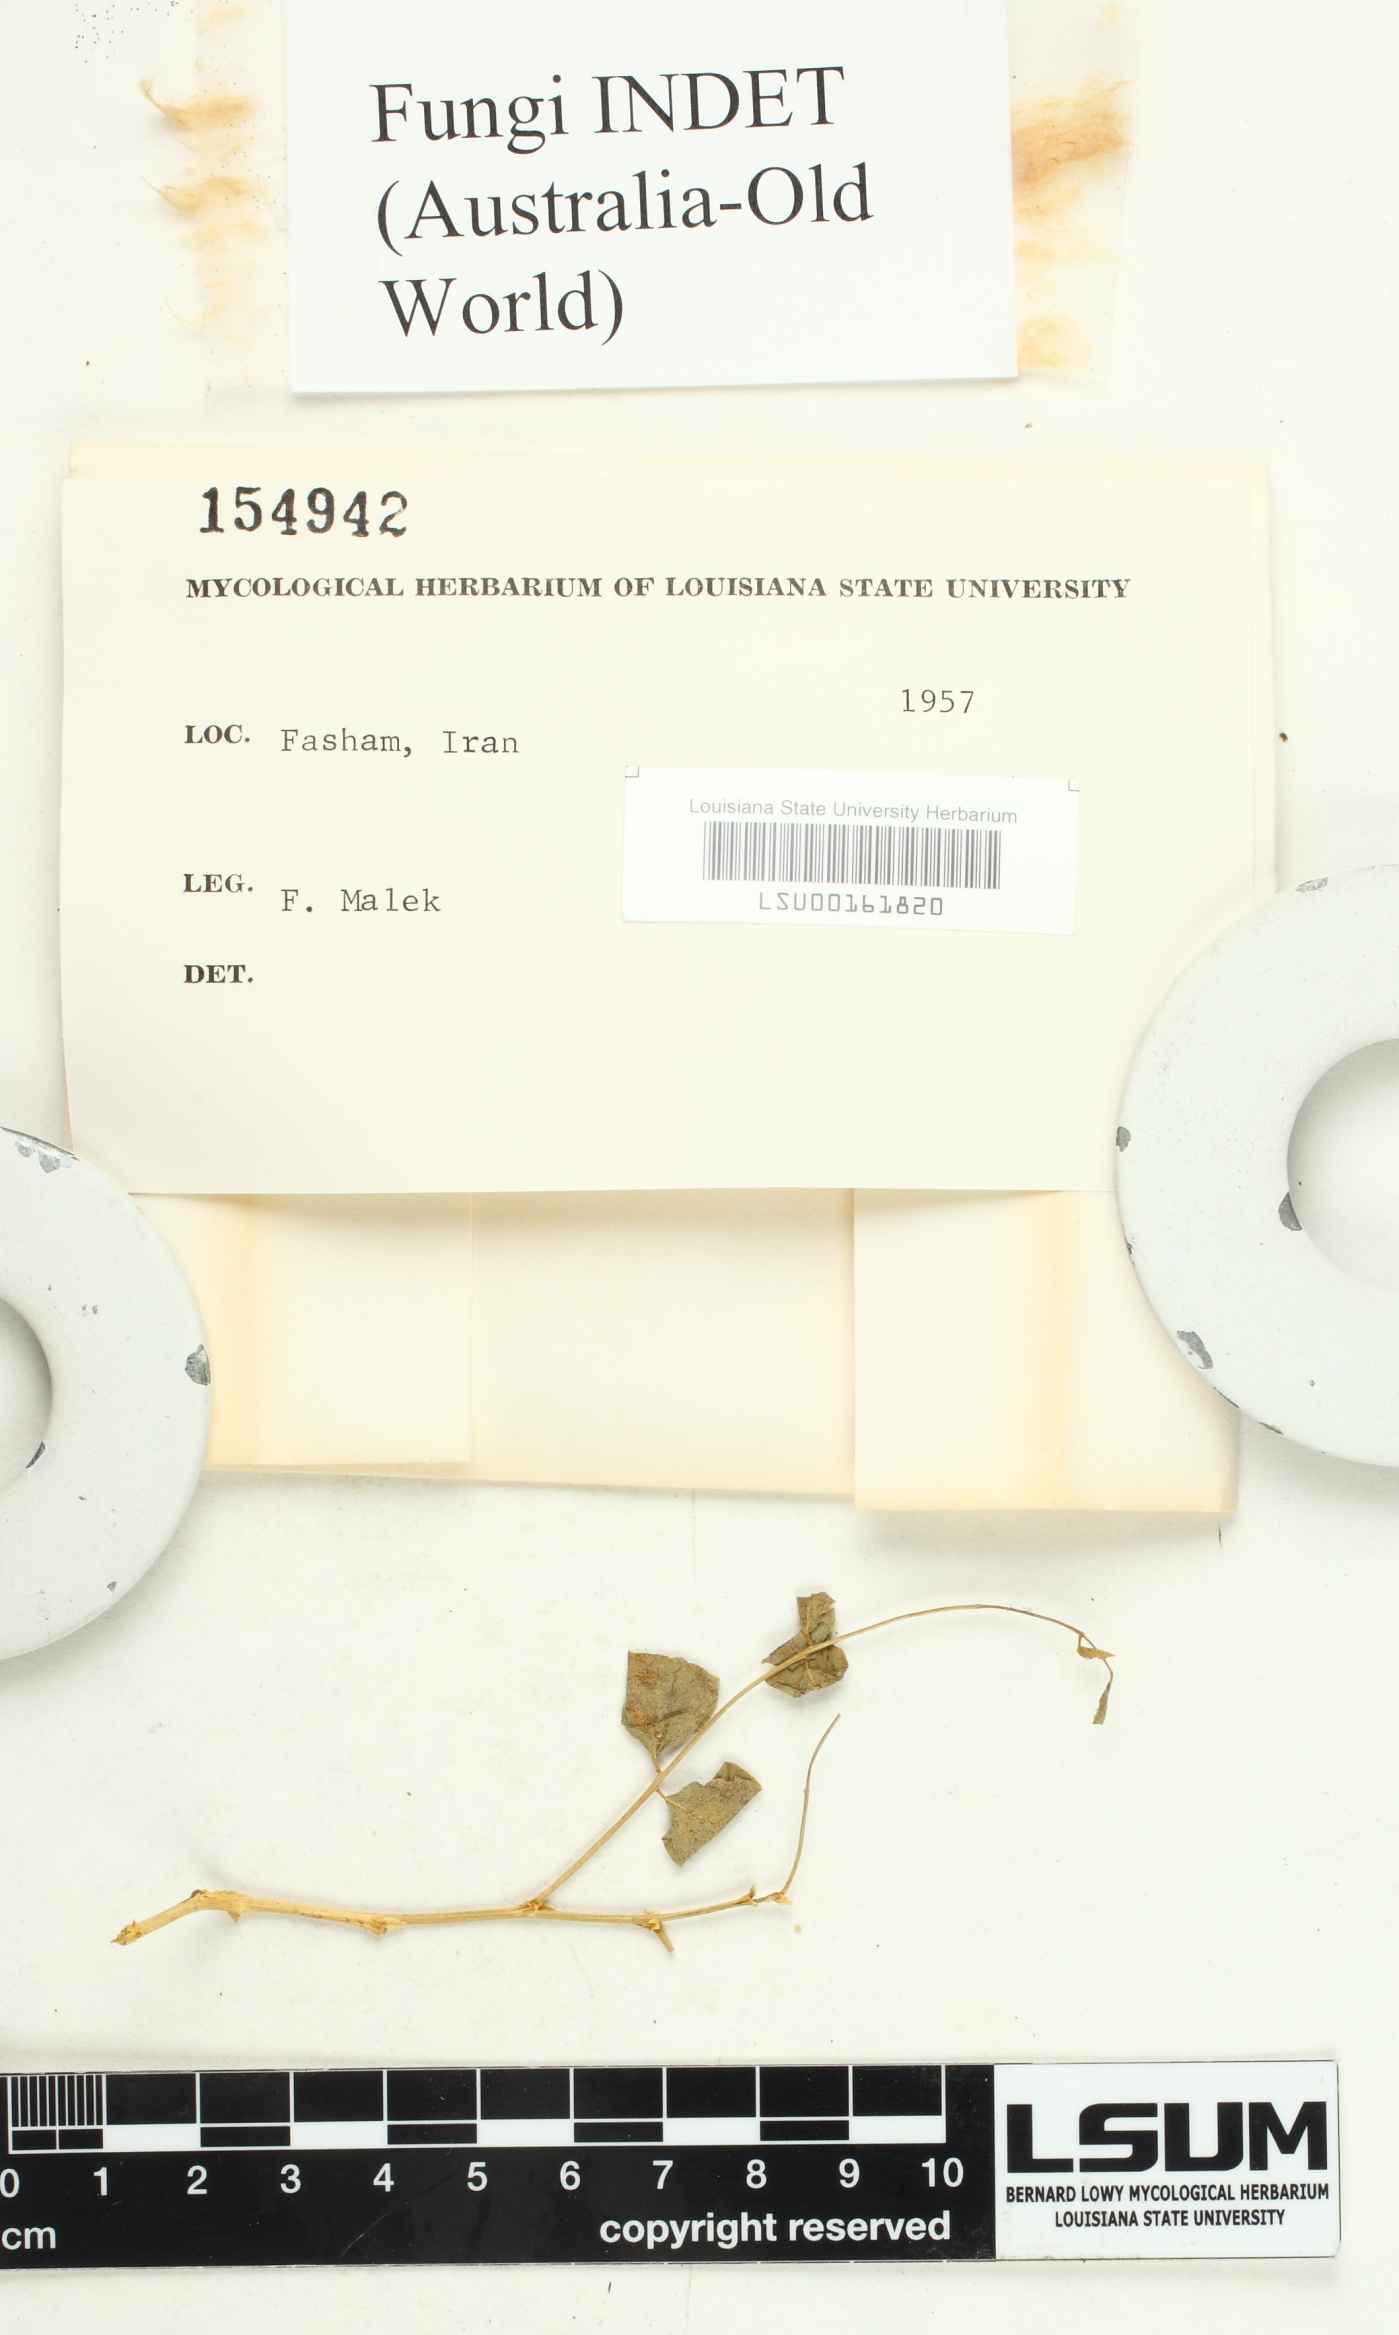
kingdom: Fungi
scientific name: Fungi
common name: Fungi
